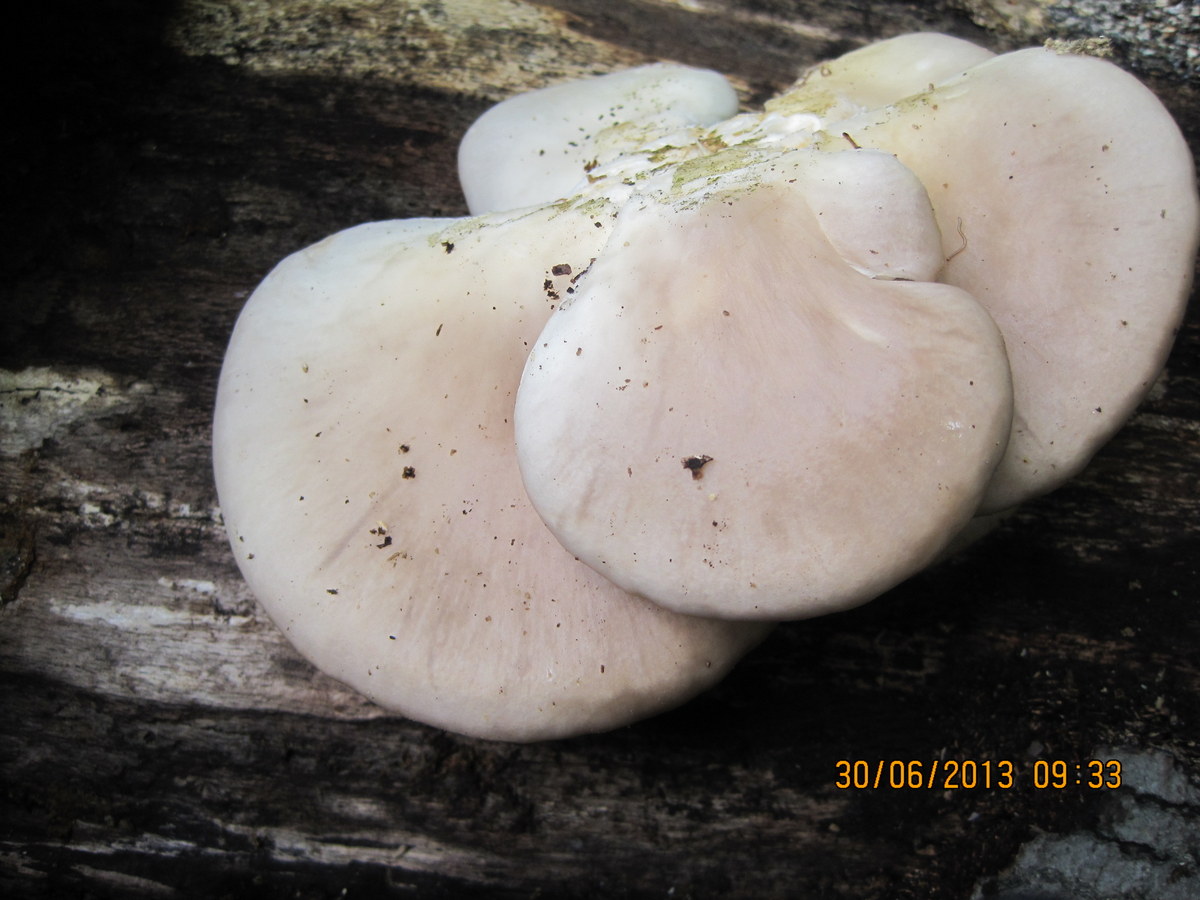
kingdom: Fungi
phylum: Basidiomycota
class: Agaricomycetes
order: Agaricales
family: Pleurotaceae
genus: Pleurotus
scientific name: Pleurotus pulmonarius
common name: sommer-østershat
